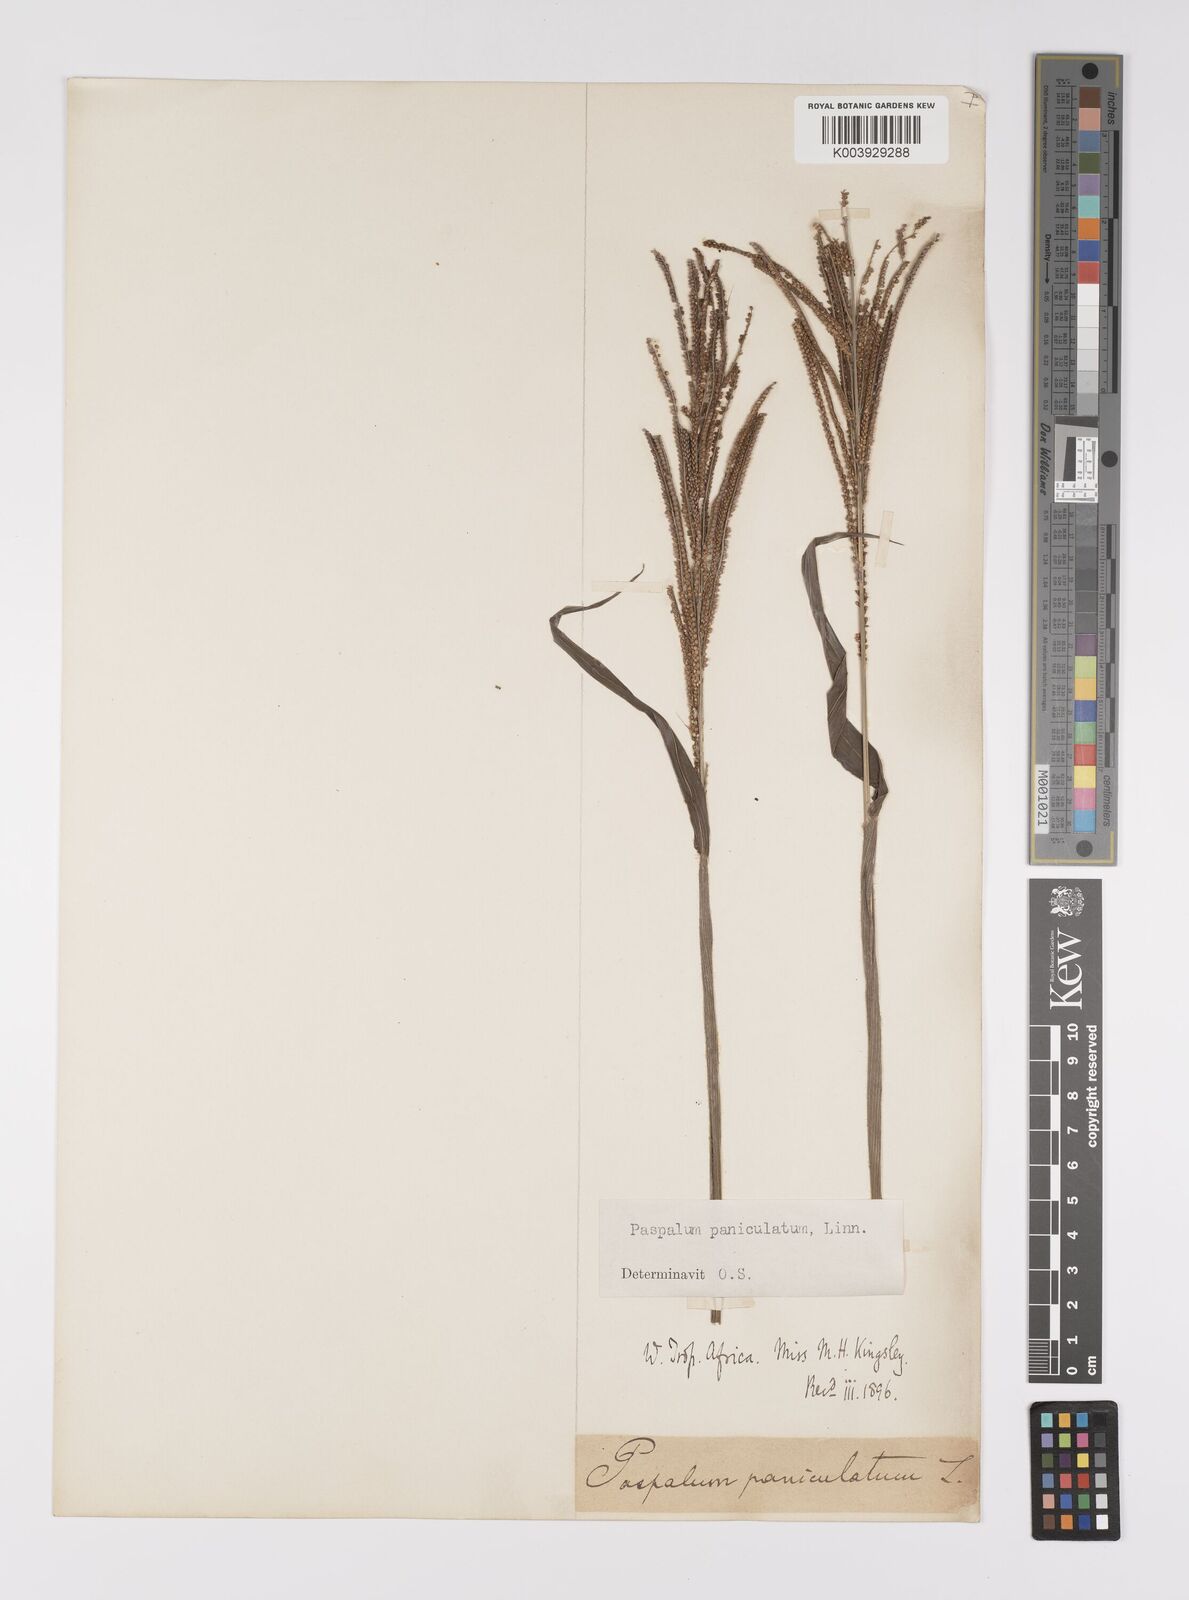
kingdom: Plantae
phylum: Tracheophyta
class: Liliopsida
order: Poales
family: Poaceae
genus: Paspalum
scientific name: Paspalum paniculatum
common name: Arrocillo
